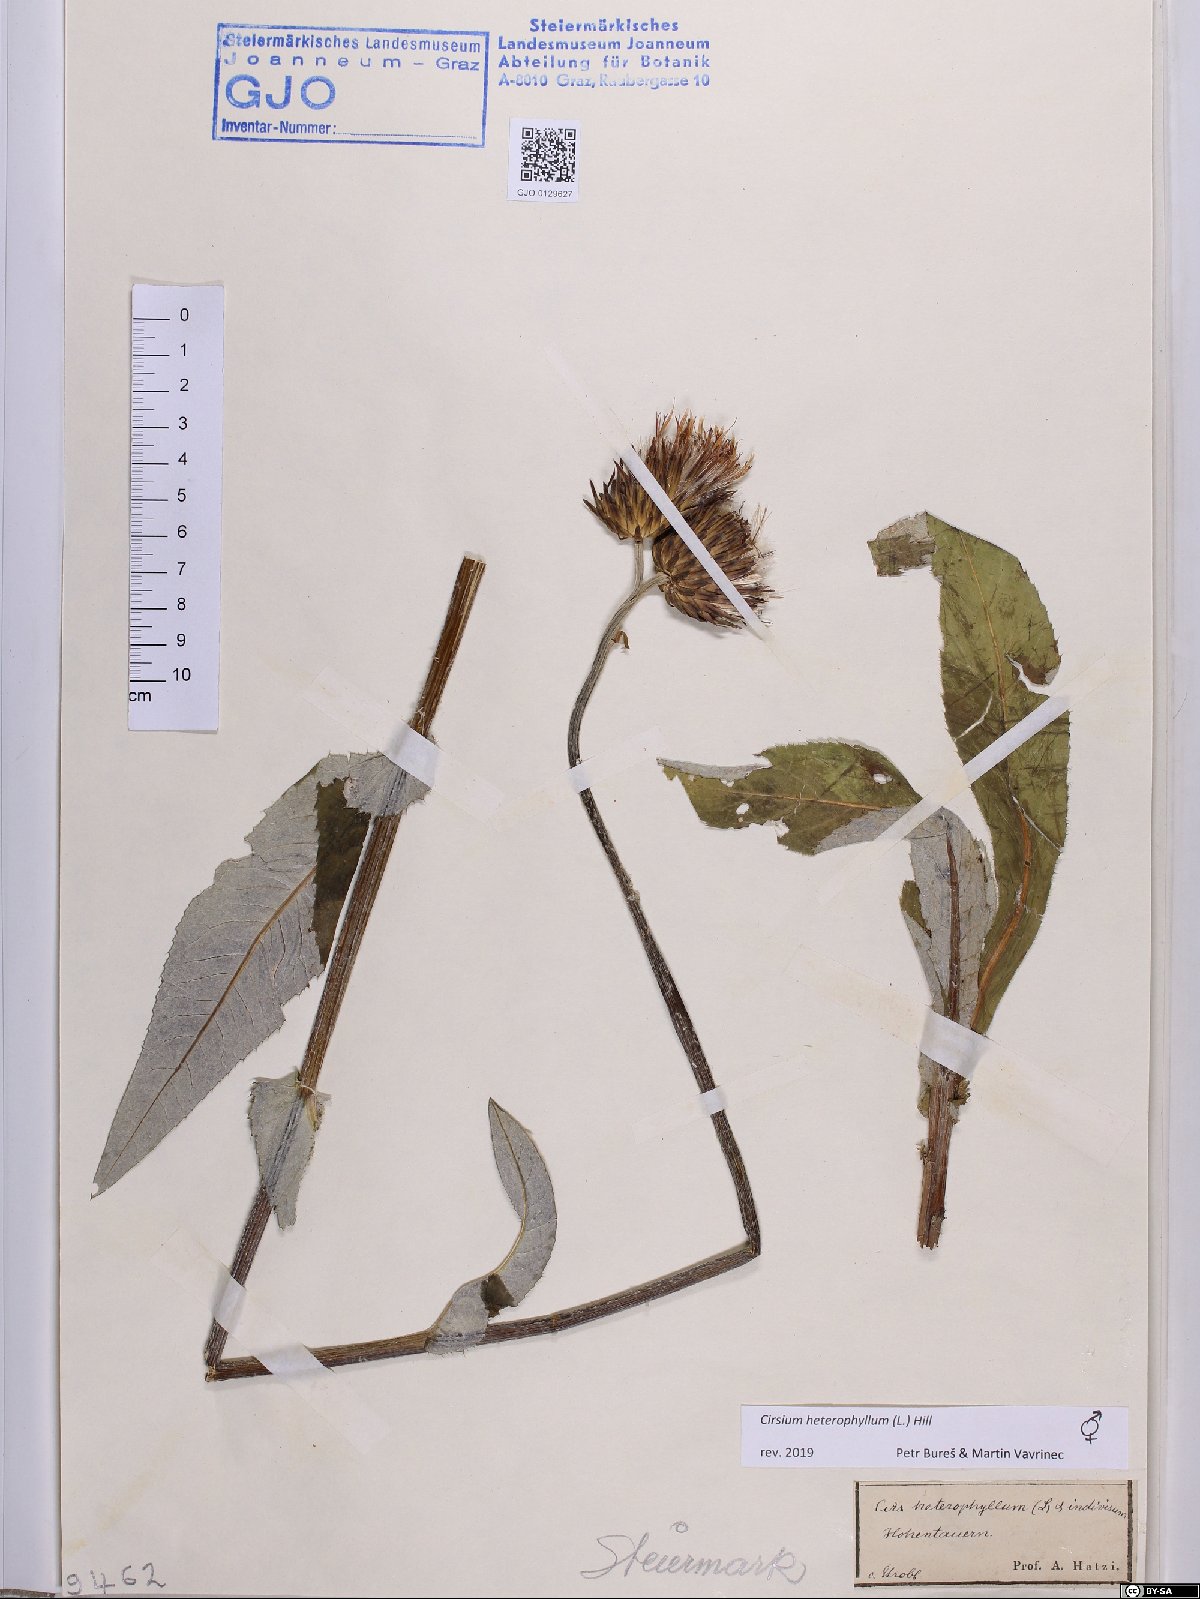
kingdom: Plantae
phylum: Tracheophyta
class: Magnoliopsida
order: Asterales
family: Asteraceae
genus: Cirsium
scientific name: Cirsium heterophyllum
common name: Melancholy thistle
